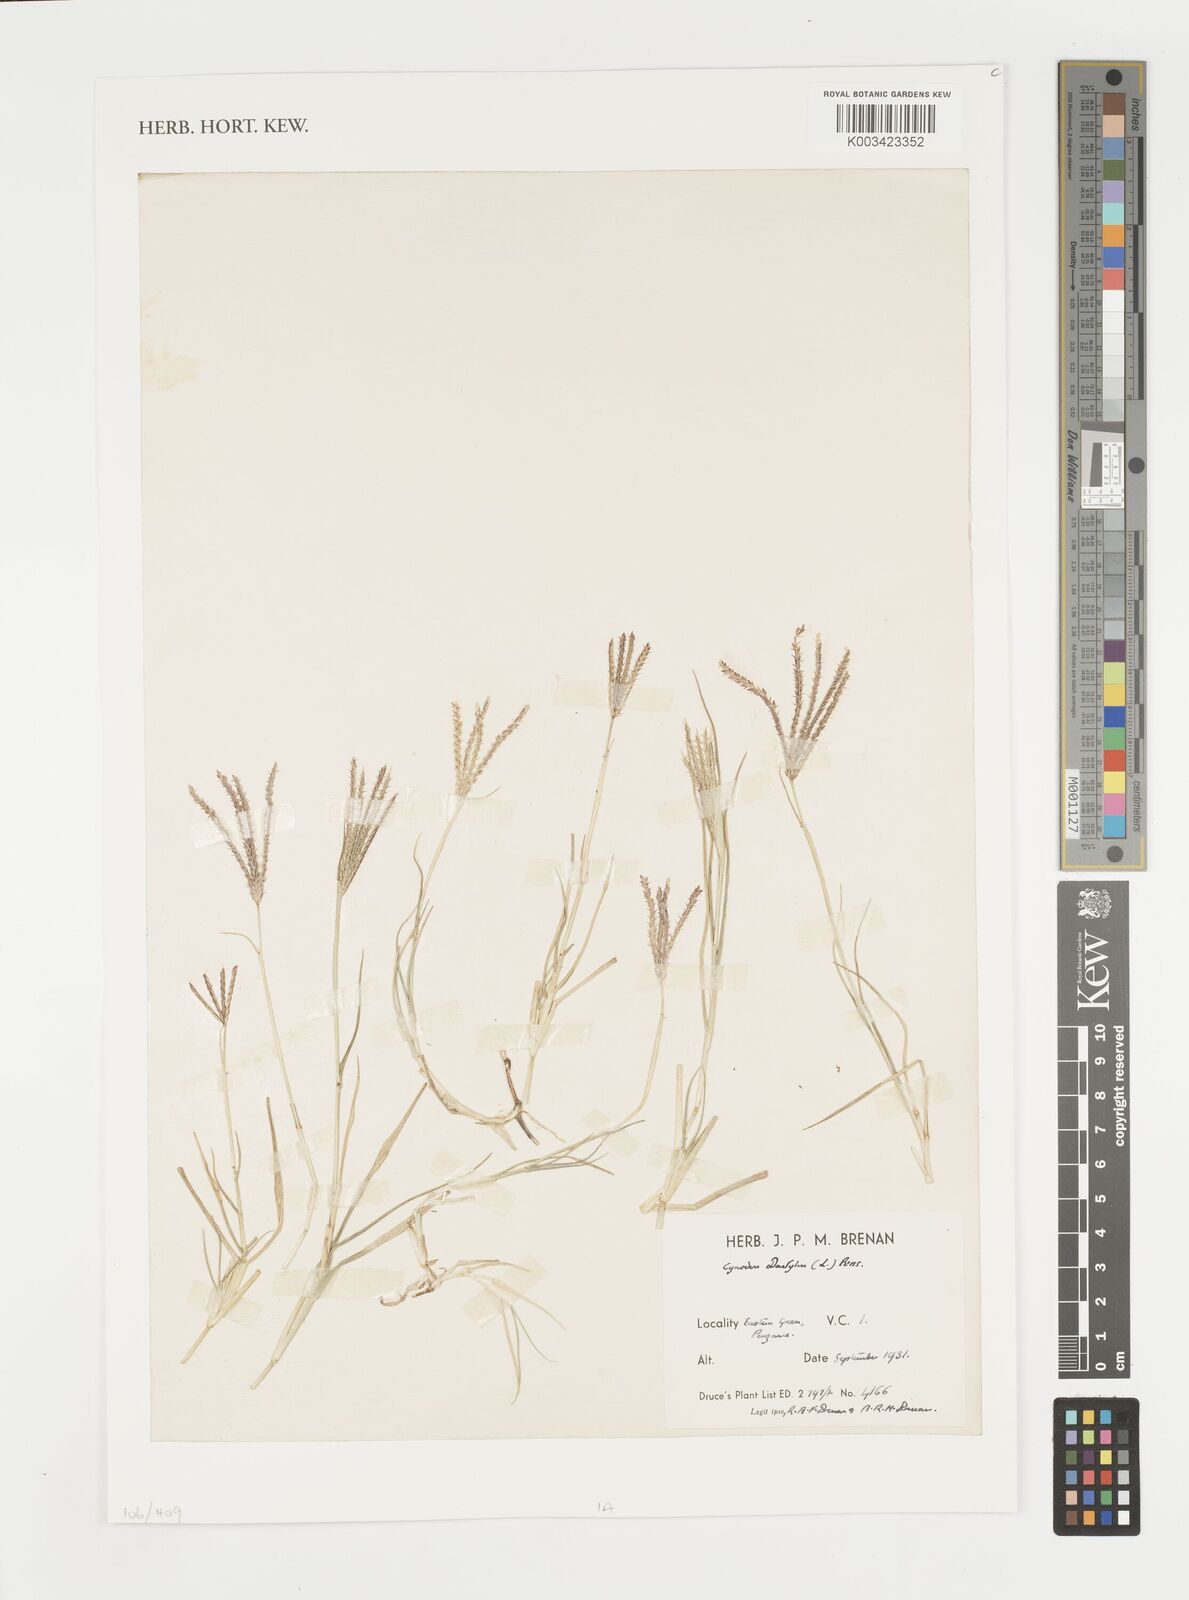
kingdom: Plantae
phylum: Tracheophyta
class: Liliopsida
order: Poales
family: Poaceae
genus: Cynodon
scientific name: Cynodon dactylon
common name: Bermuda grass
